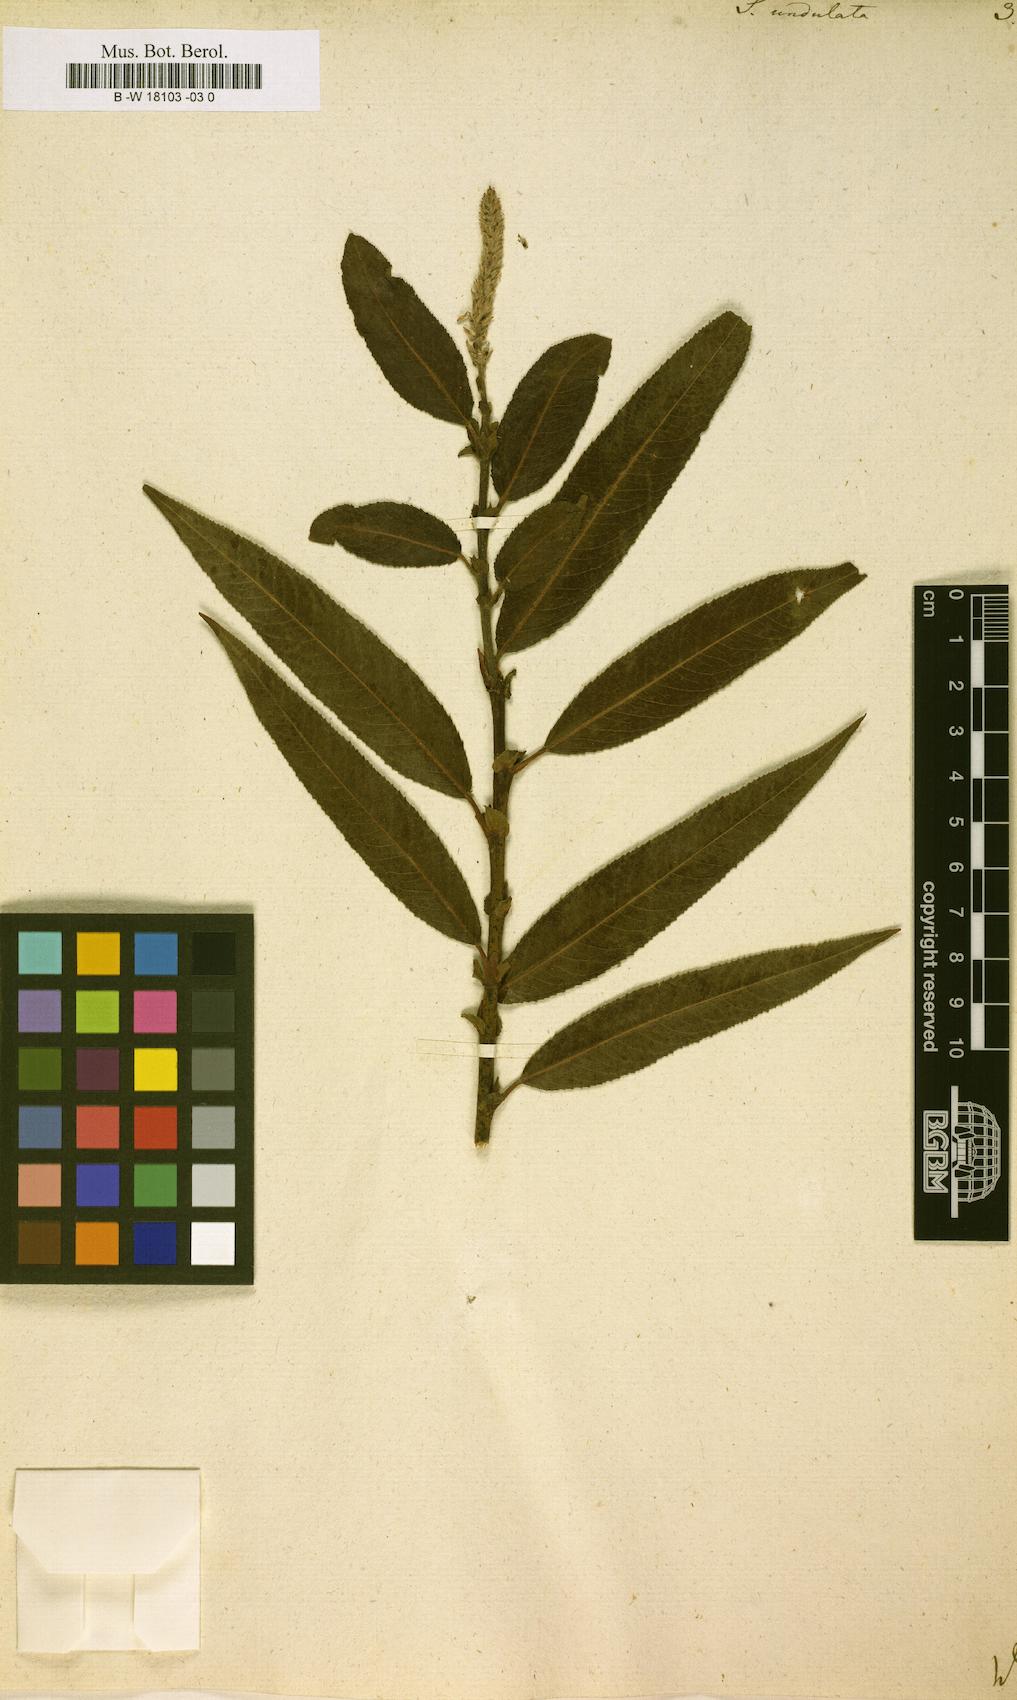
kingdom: Plantae
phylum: Tracheophyta
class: Magnoliopsida
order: Malpighiales
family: Salicaceae
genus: Salix
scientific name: Salix undulata
